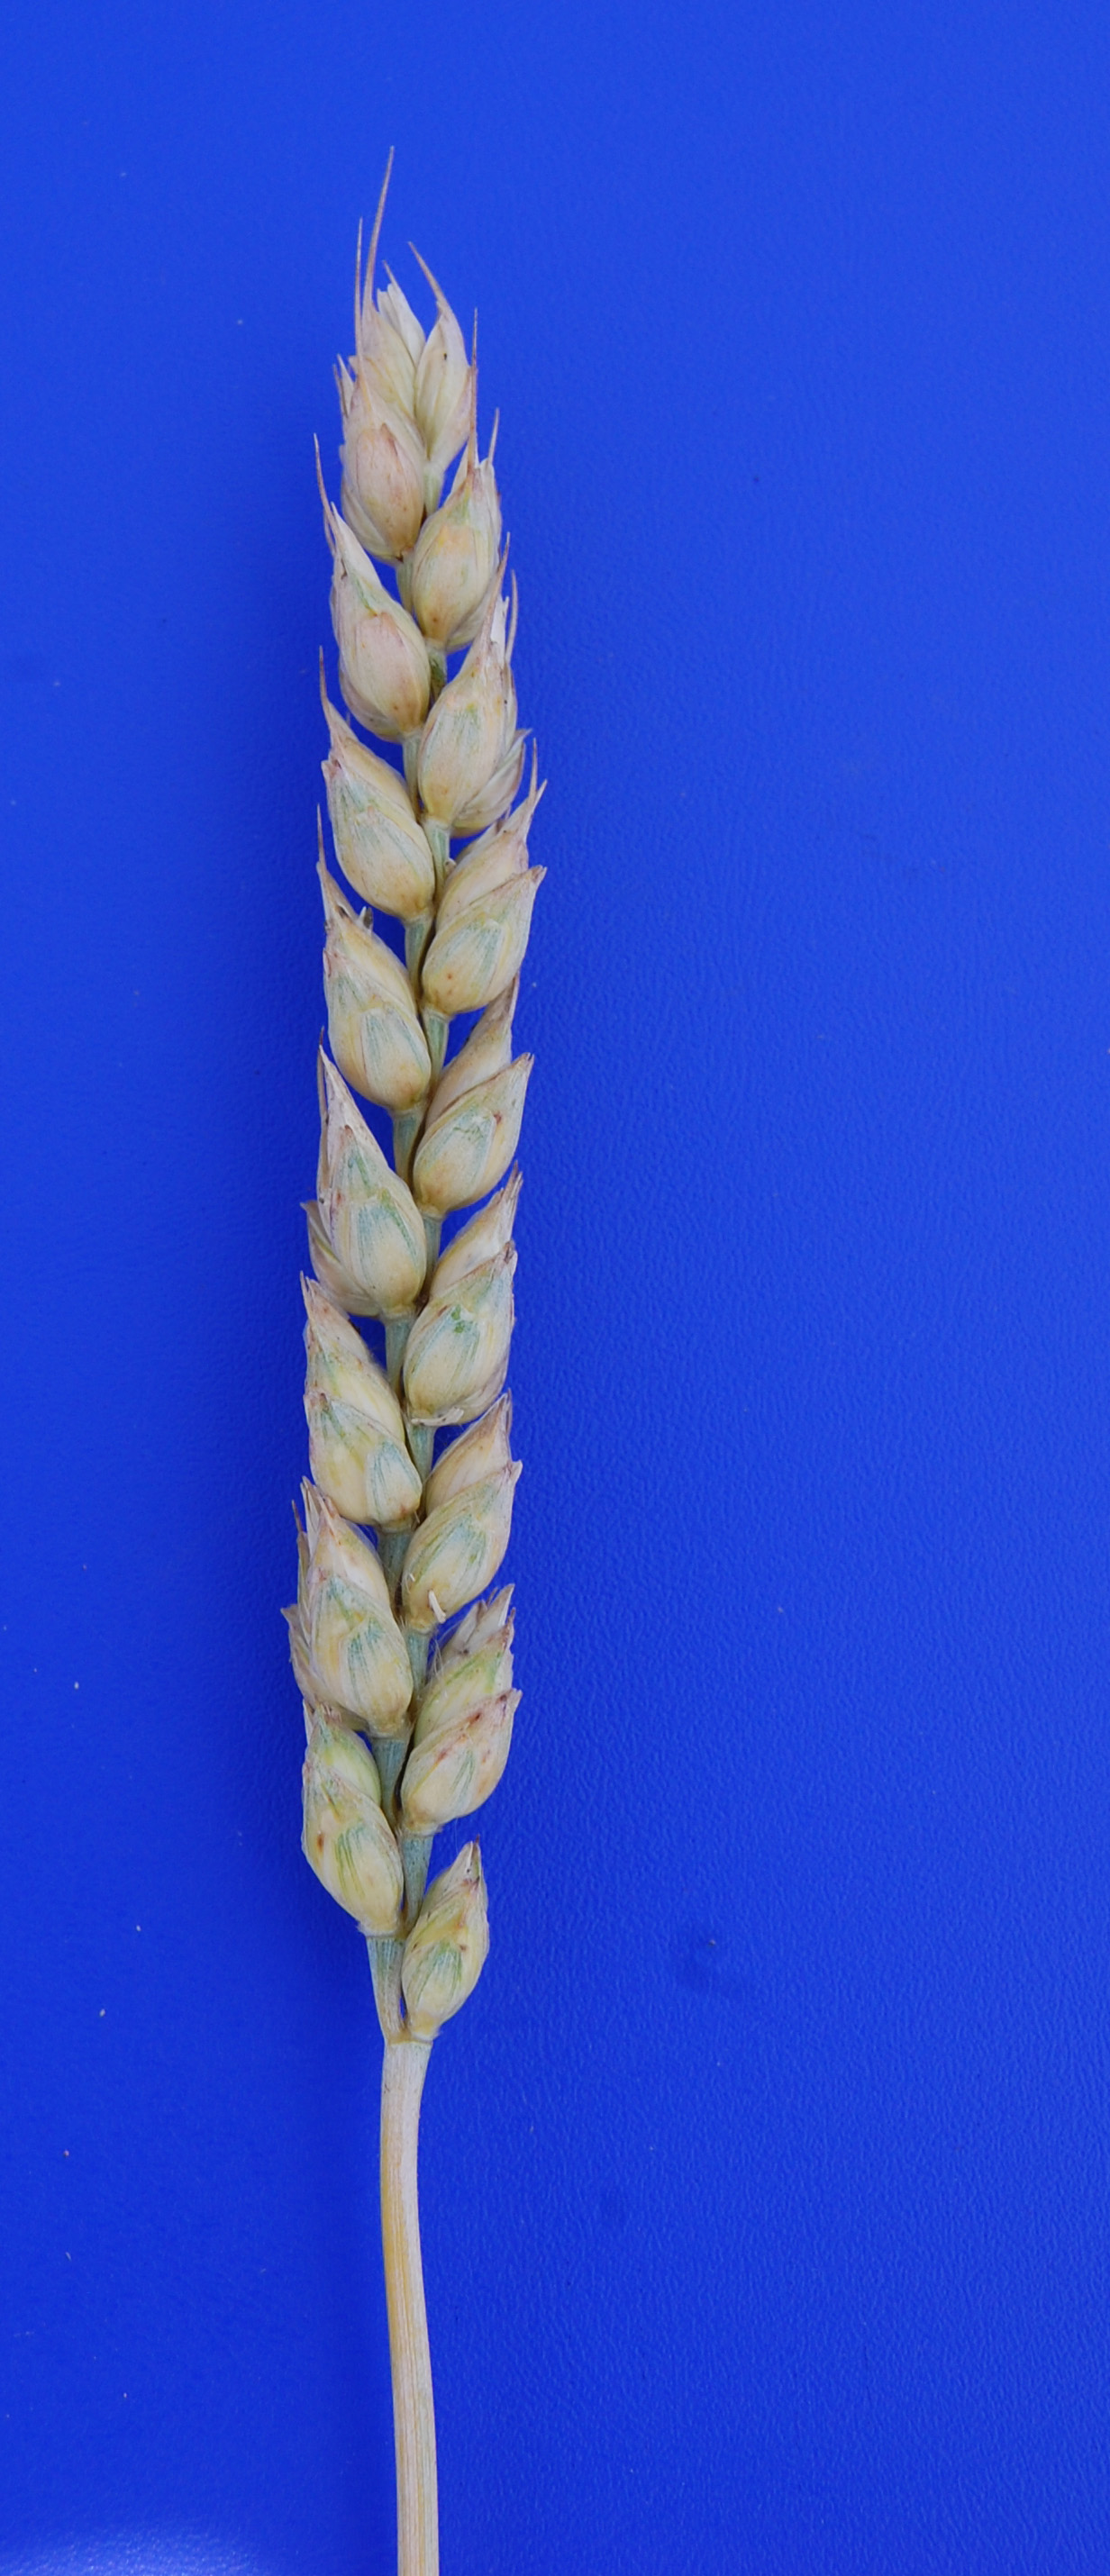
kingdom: Plantae
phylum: Tracheophyta
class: Liliopsida
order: Poales
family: Poaceae
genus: Triticum
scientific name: Triticum aestivum
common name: Common wheat
